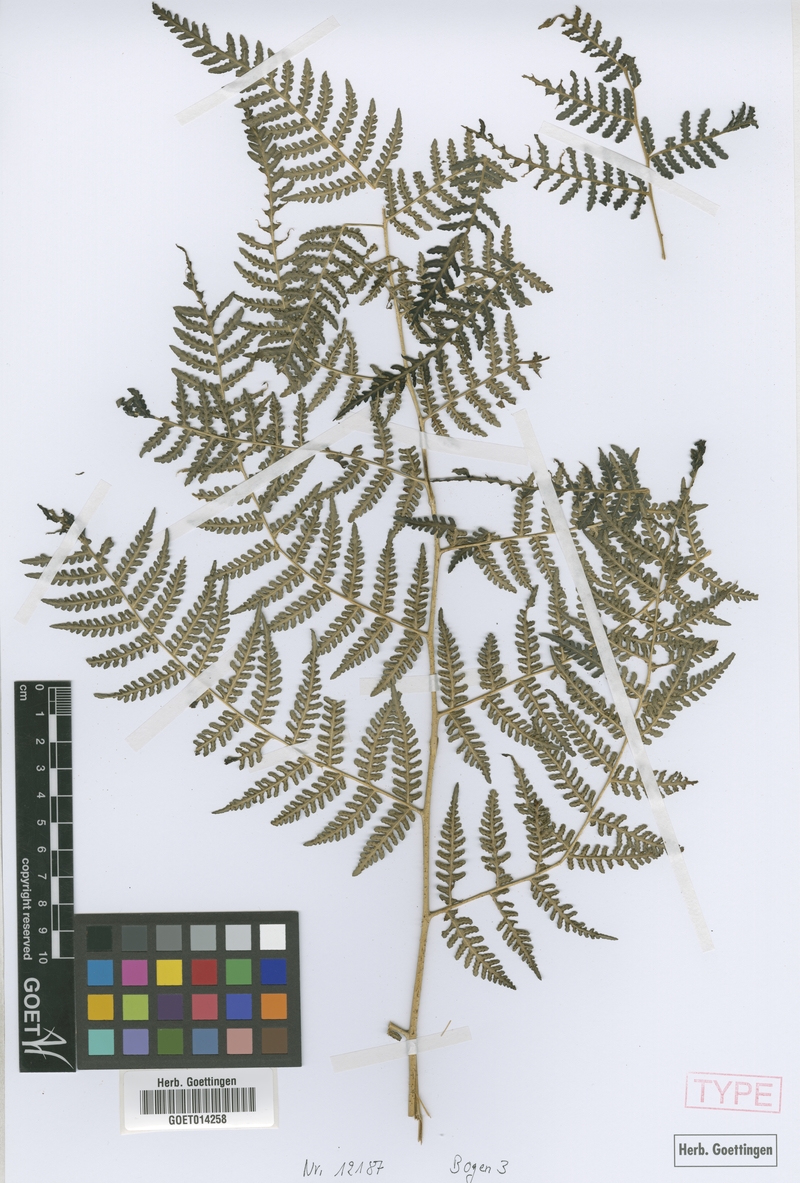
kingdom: Plantae
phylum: Tracheophyta
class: Polypodiopsida
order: Polypodiales
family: Dennstaedtiaceae
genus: Hypolepis
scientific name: Hypolepis scandens
